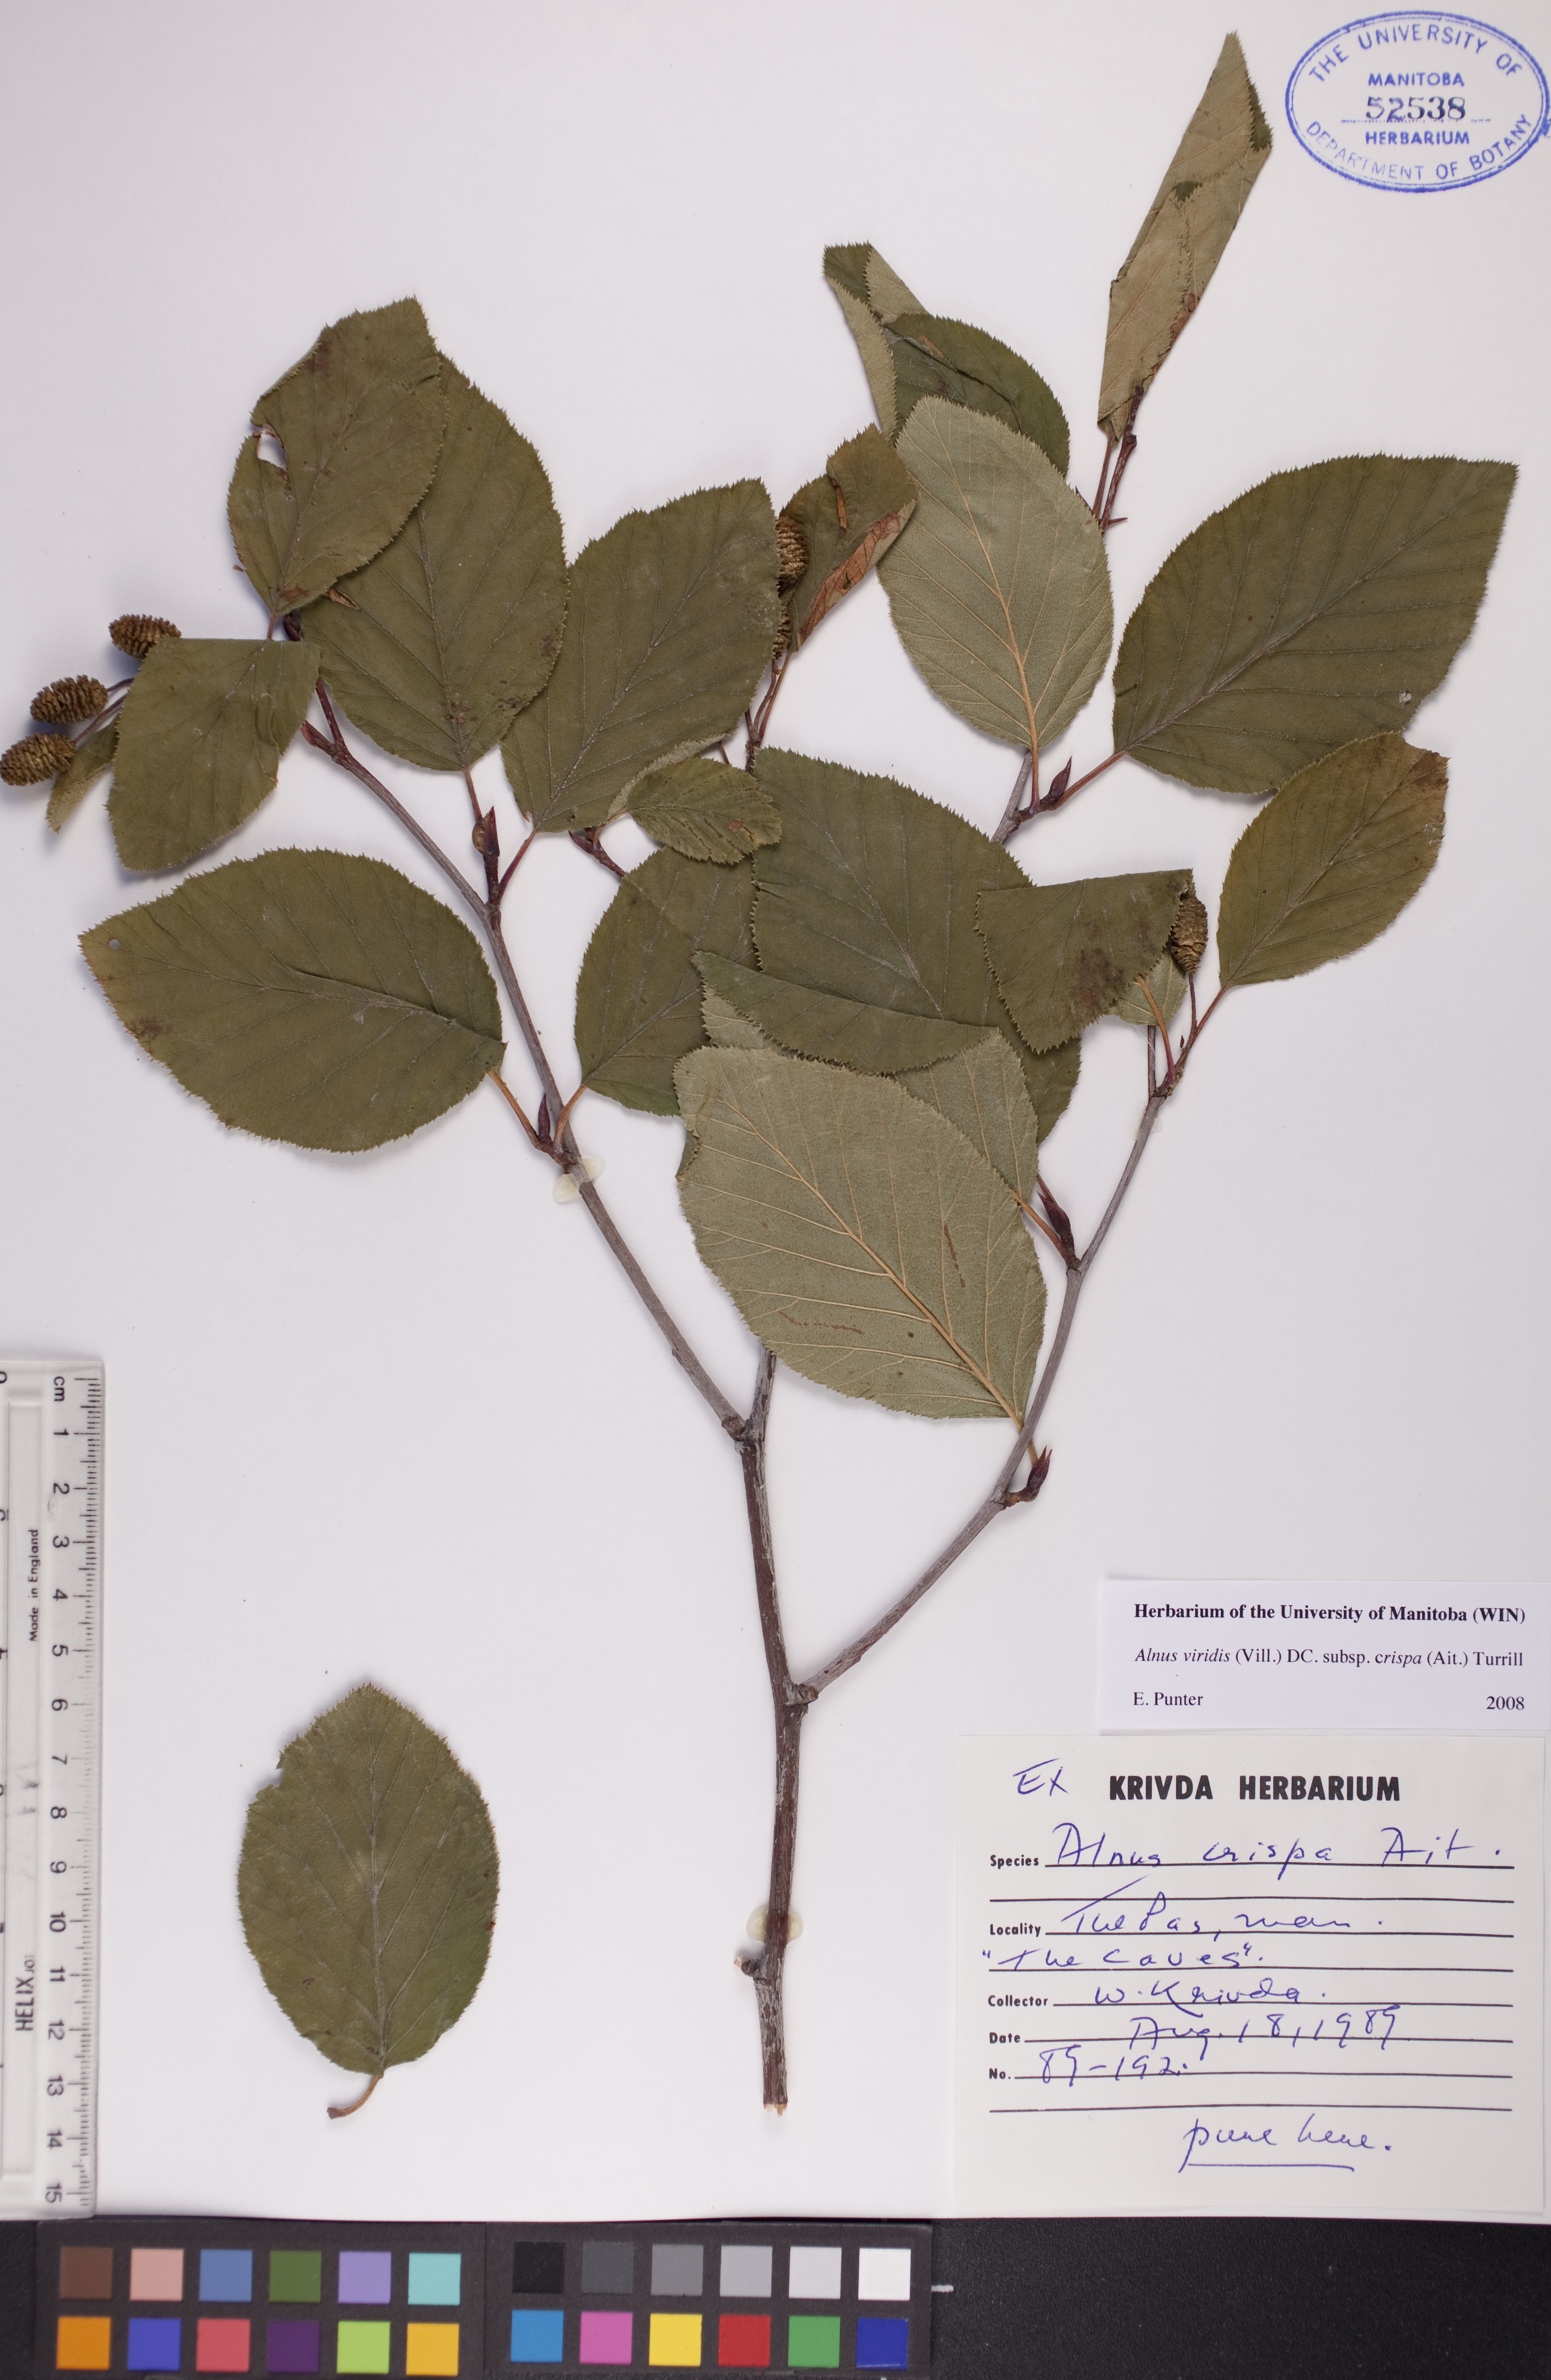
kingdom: Plantae
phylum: Tracheophyta
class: Magnoliopsida
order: Fagales
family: Betulaceae
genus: Alnus
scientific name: Alnus alnobetula
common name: Green alder
